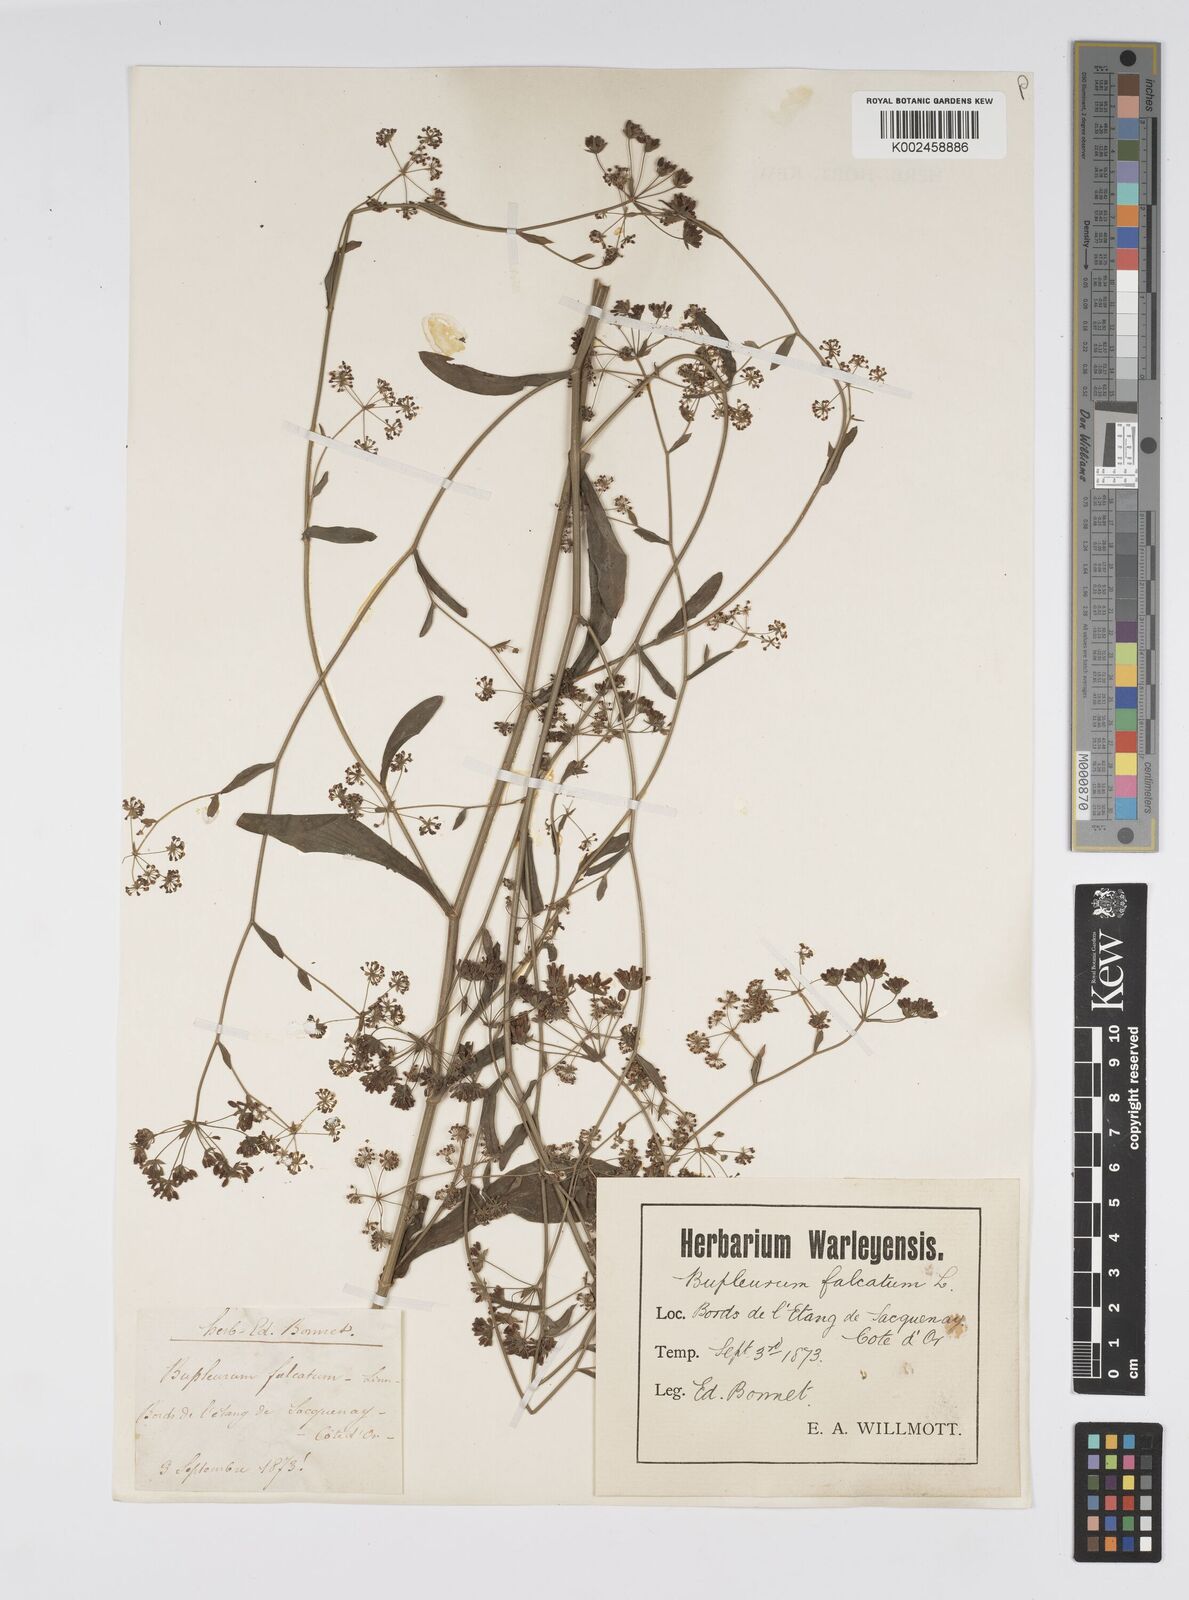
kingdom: Plantae
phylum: Tracheophyta
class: Magnoliopsida
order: Apiales
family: Apiaceae
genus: Bupleurum
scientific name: Bupleurum falcatum
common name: Sickle-leaved hare's-ear
